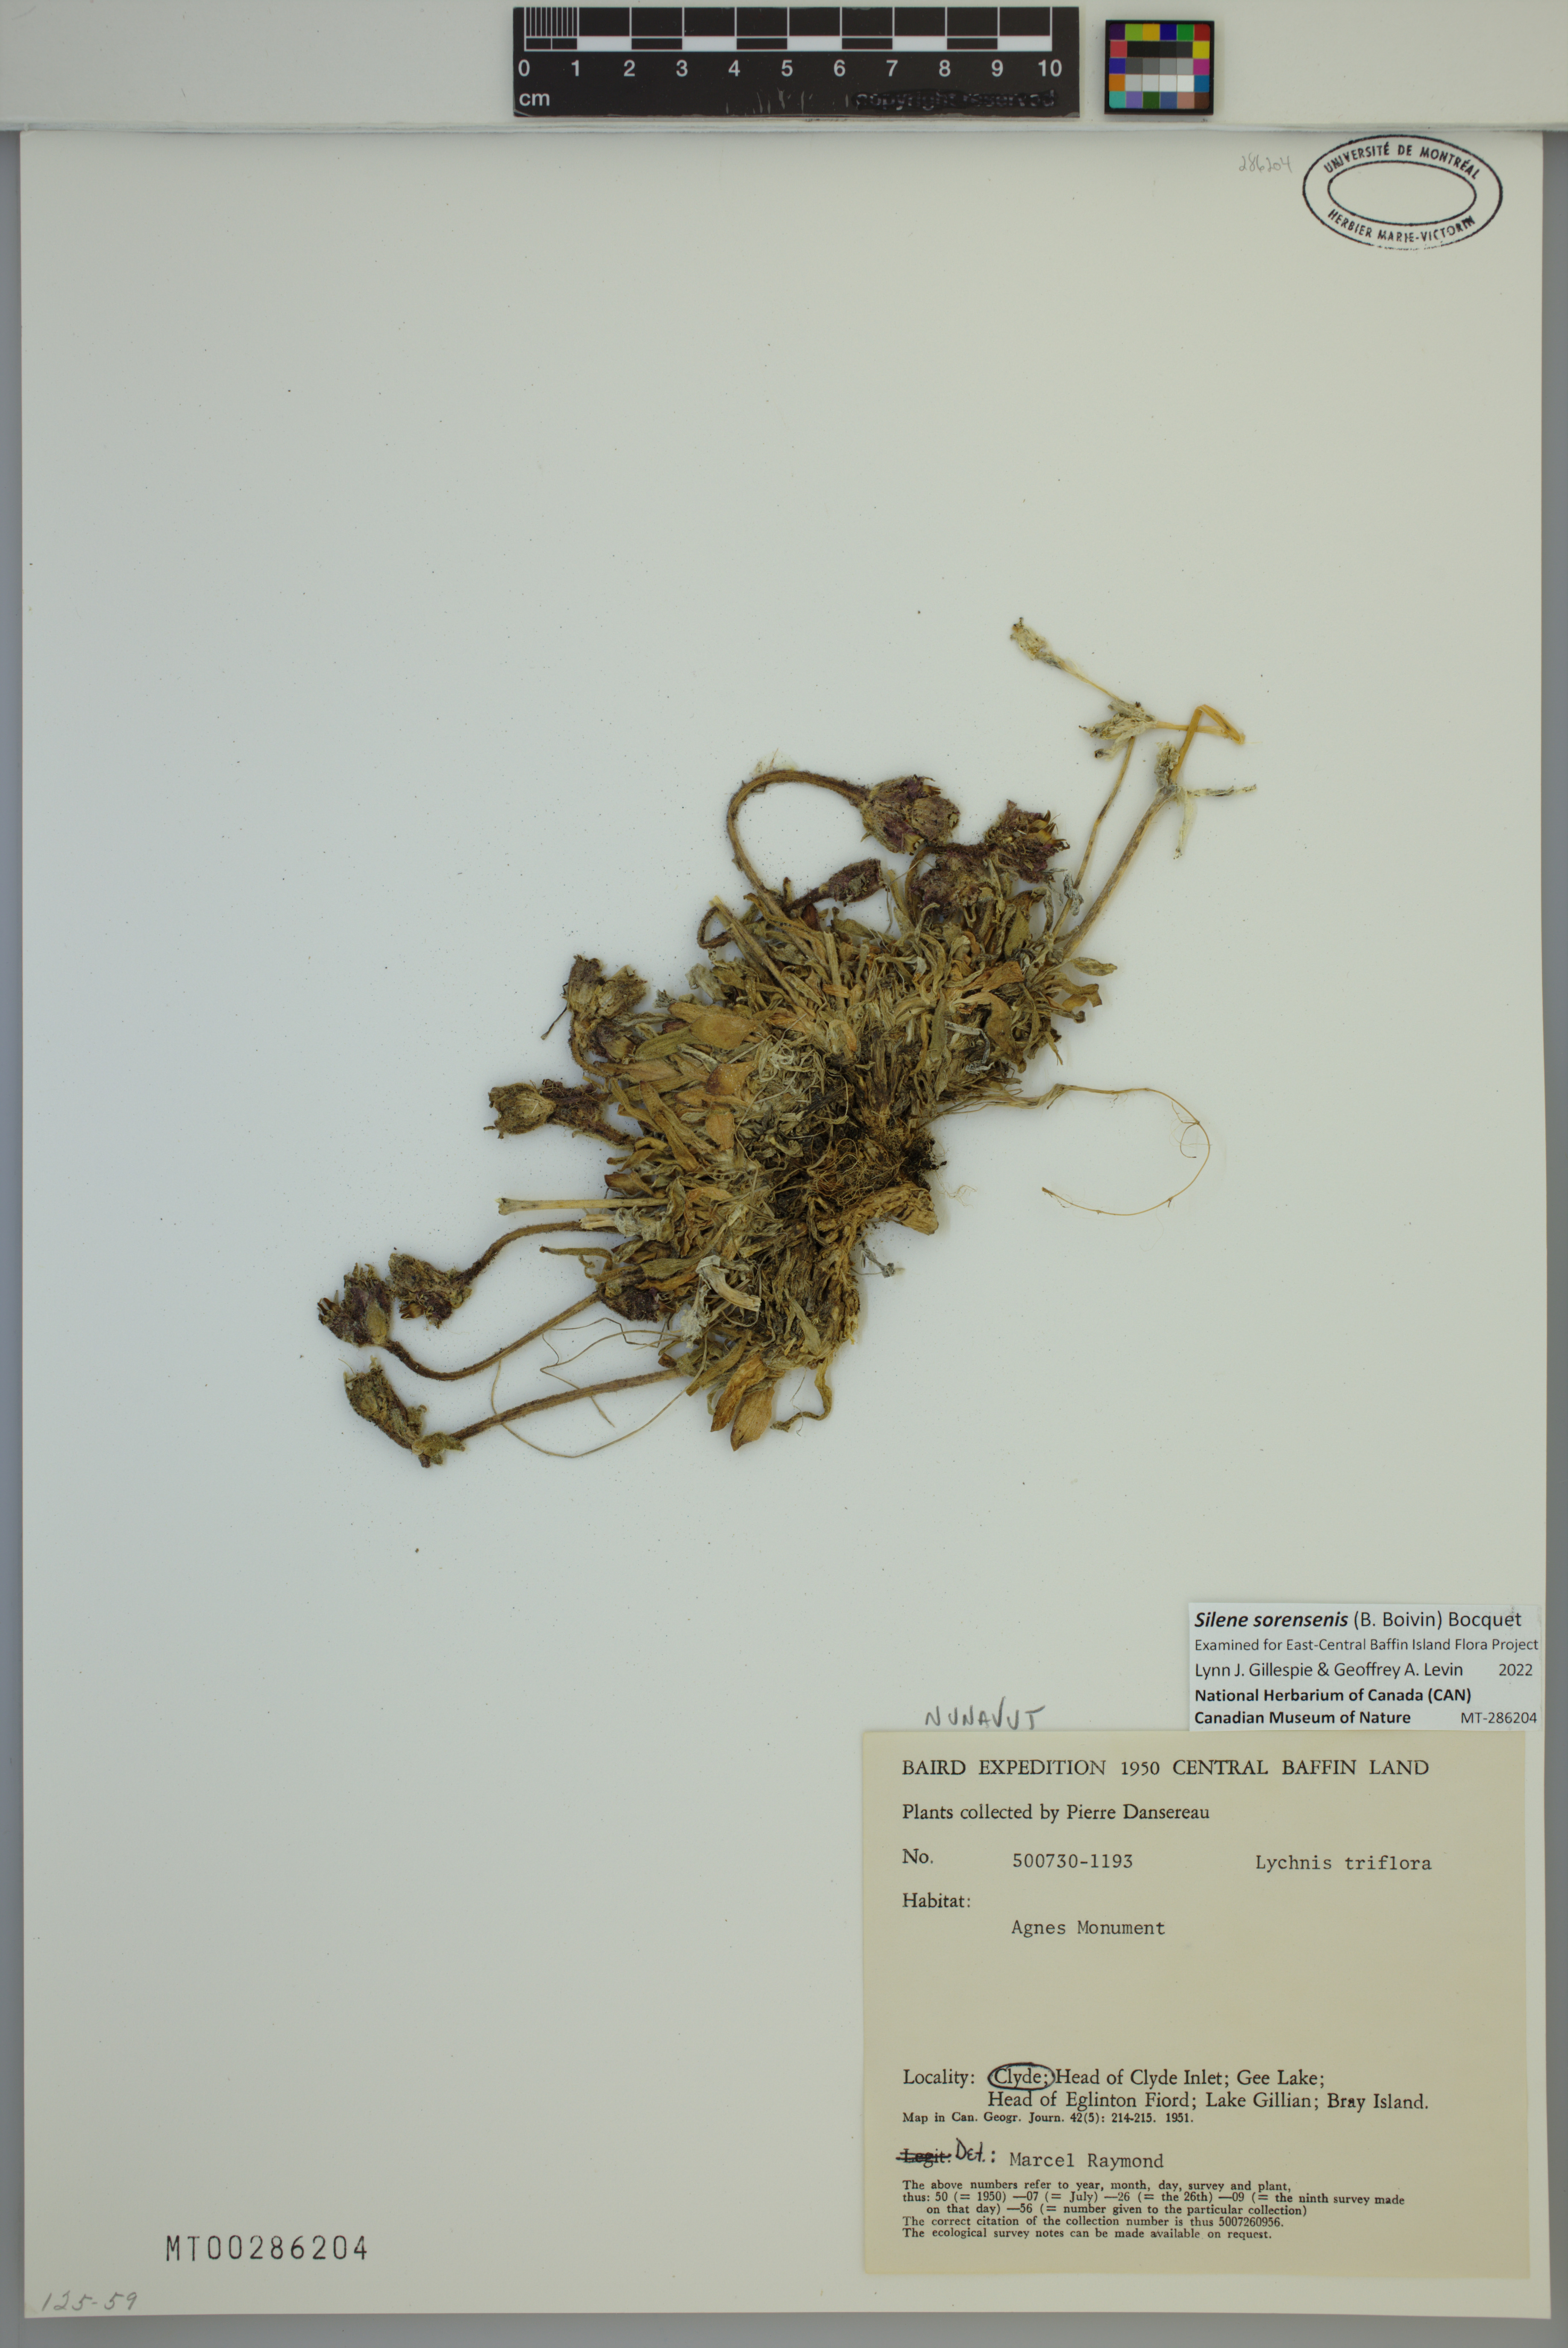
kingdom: Plantae
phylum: Tracheophyta
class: Magnoliopsida
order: Caryophyllales
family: Caryophyllaceae
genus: Silene
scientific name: Silene sorensenis
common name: Sorensen's campion
